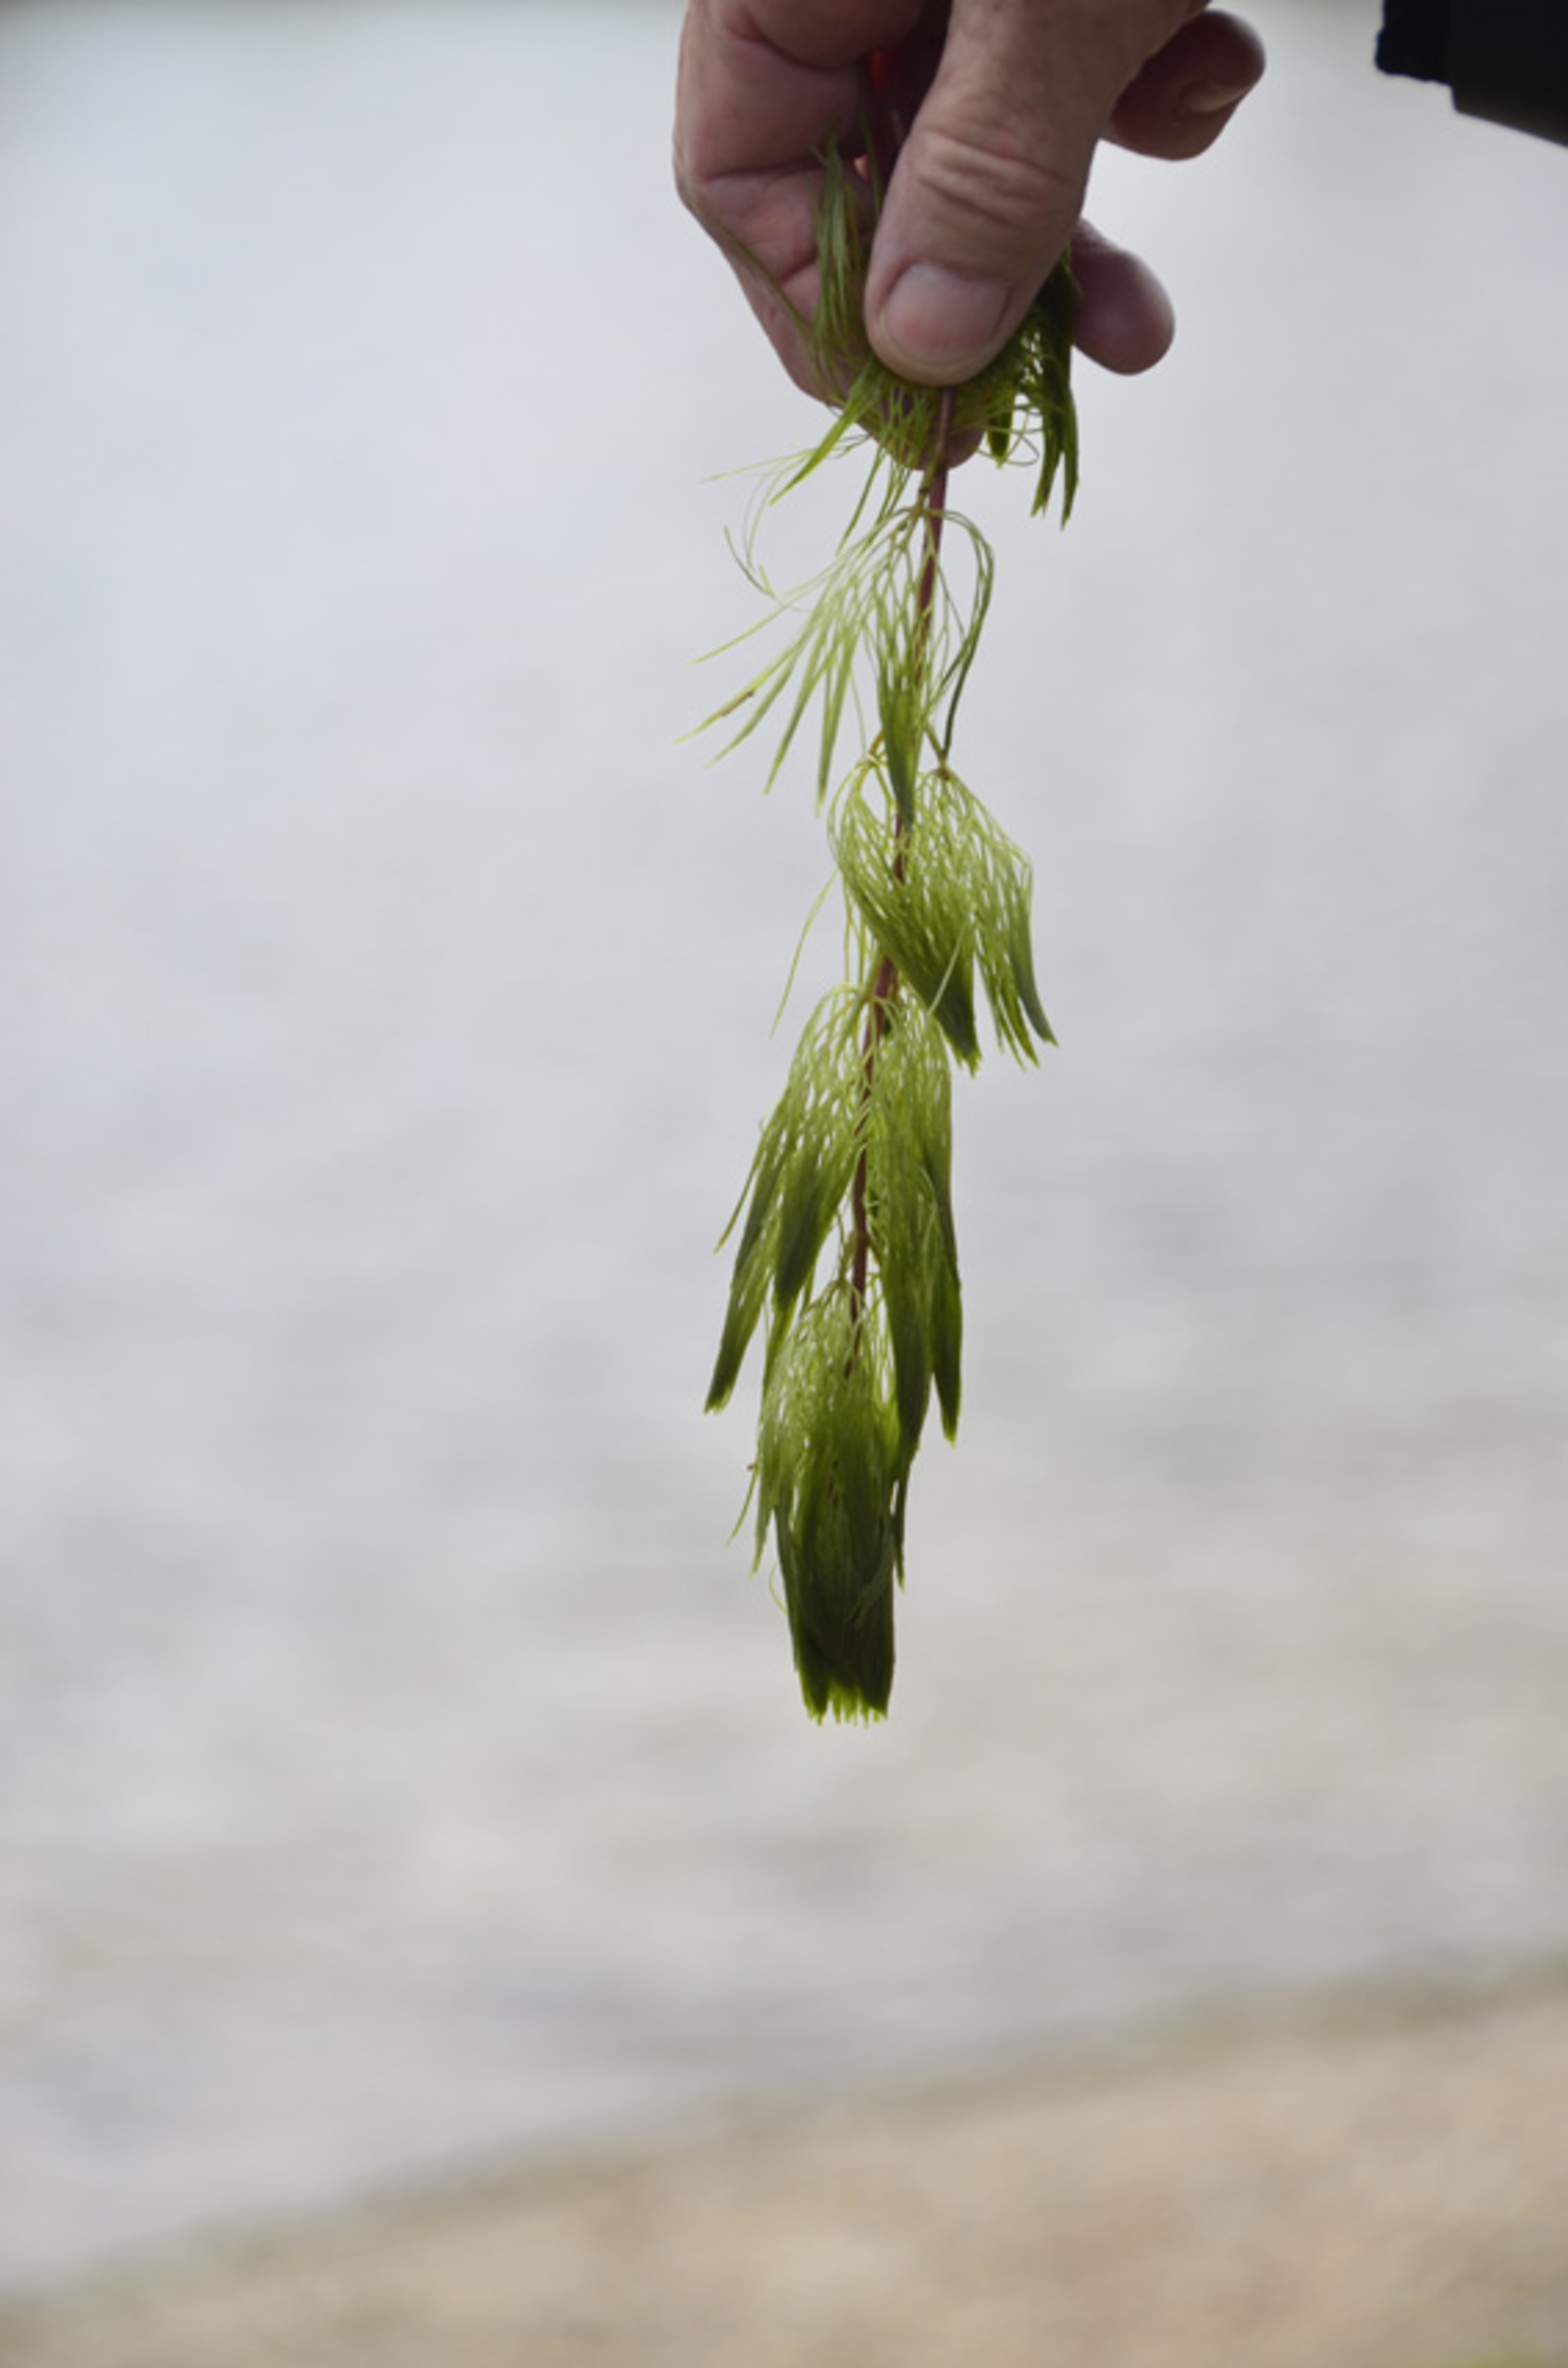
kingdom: Plantae
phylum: Tracheophyta
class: Magnoliopsida
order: Nymphaeales
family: Cabombaceae
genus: Cabomba
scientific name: Cabomba caroliniana
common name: Grøn cabomba
